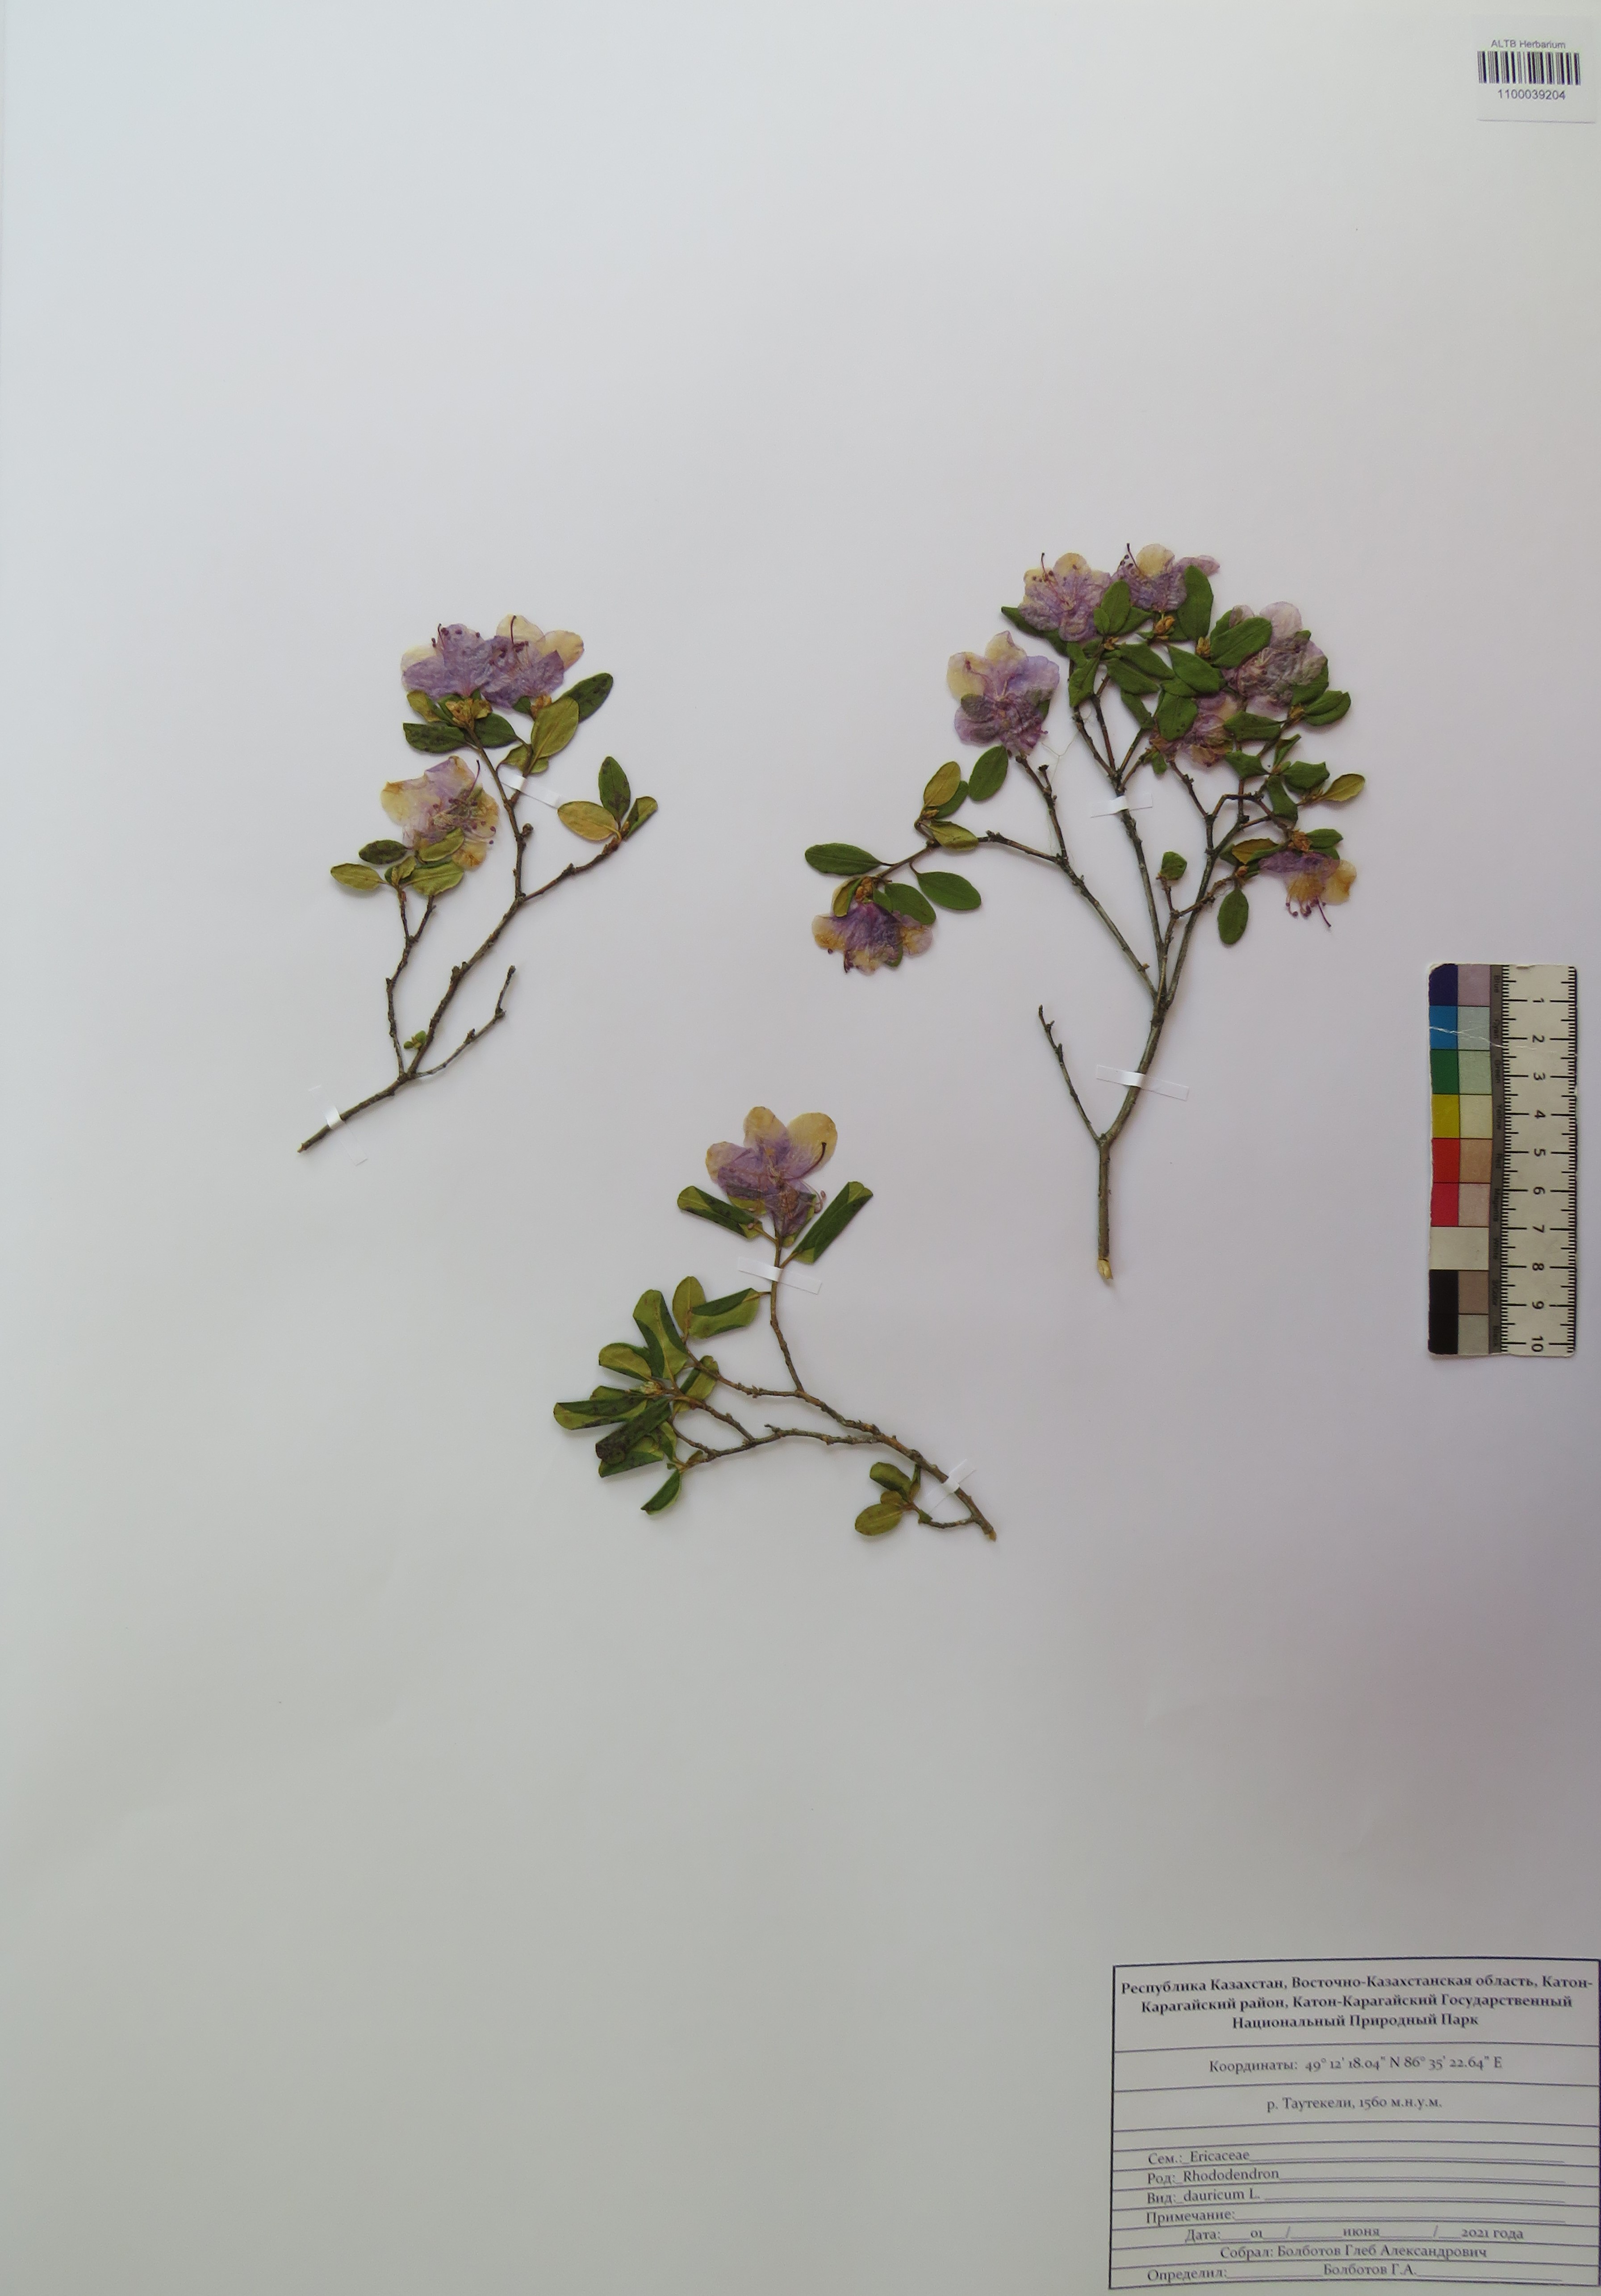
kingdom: Plantae
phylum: Tracheophyta
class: Magnoliopsida
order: Ericales
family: Ericaceae
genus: Rhododendron
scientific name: Rhododendron dauricum
